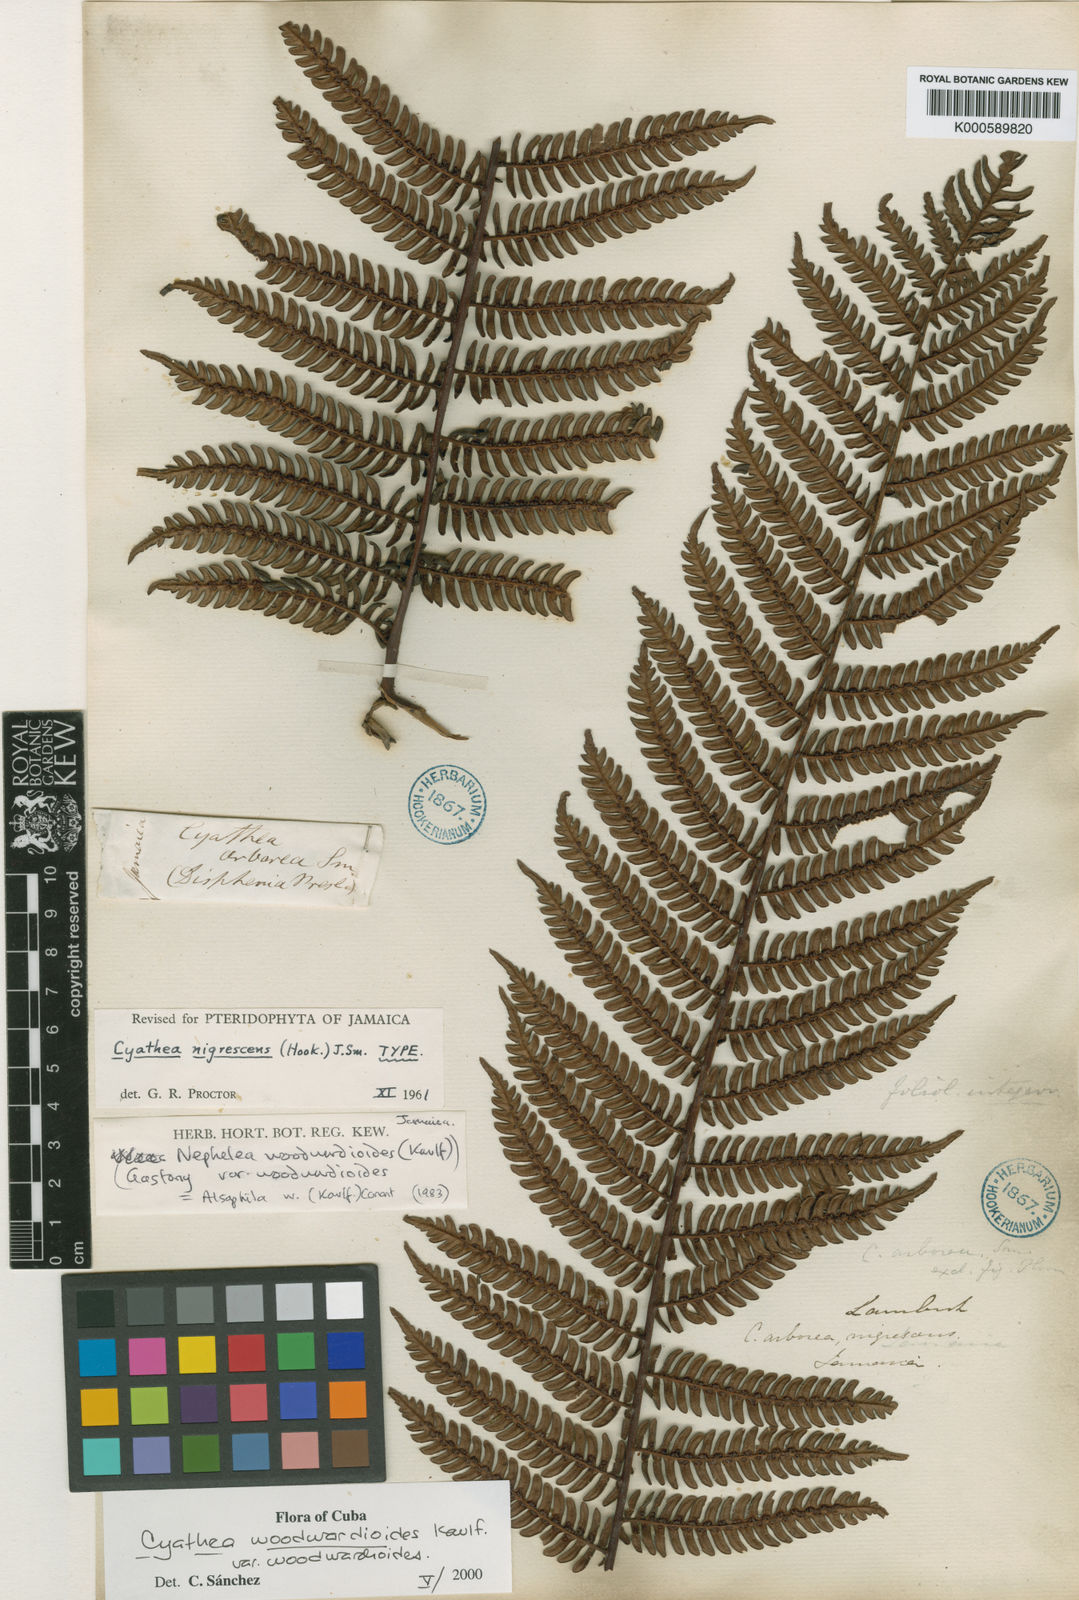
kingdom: Plantae
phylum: Tracheophyta
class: Polypodiopsida
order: Cyatheales
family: Cyatheaceae
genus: Alsophila
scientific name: Alsophila woodwardioides
